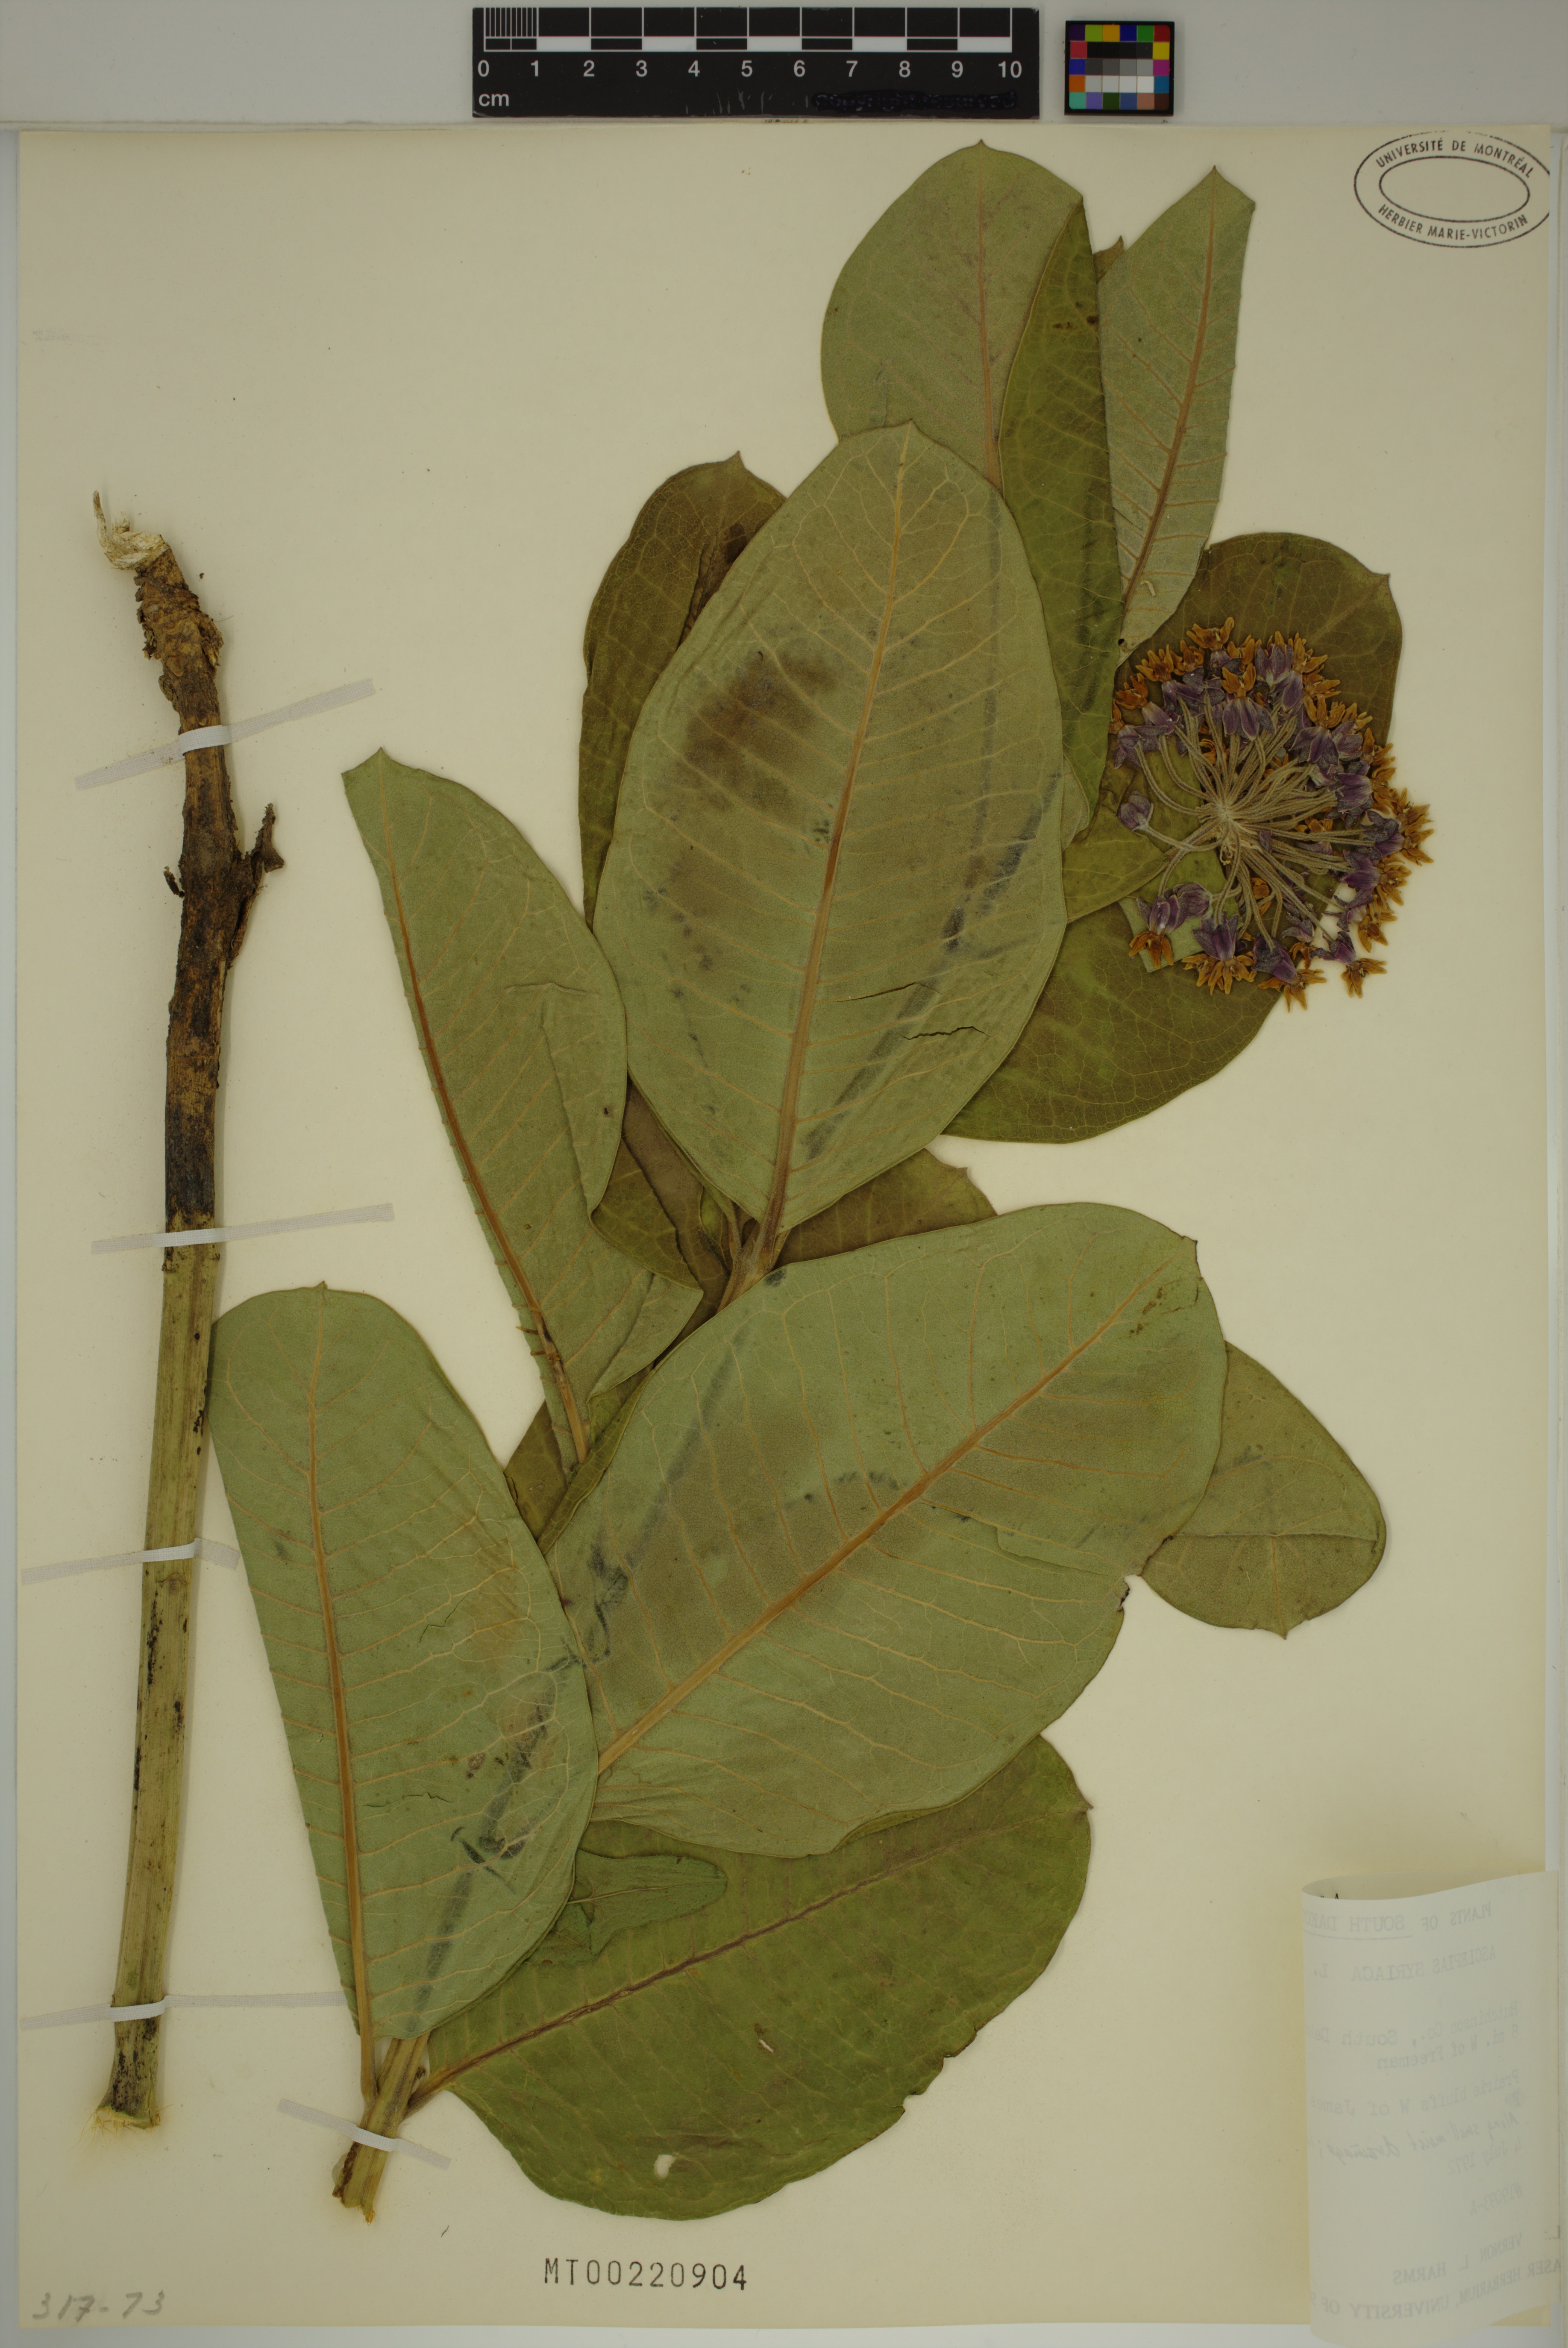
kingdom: Plantae
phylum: Tracheophyta
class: Magnoliopsida
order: Gentianales
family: Apocynaceae
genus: Asclepias
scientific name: Asclepias syriaca
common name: Common milkweed
